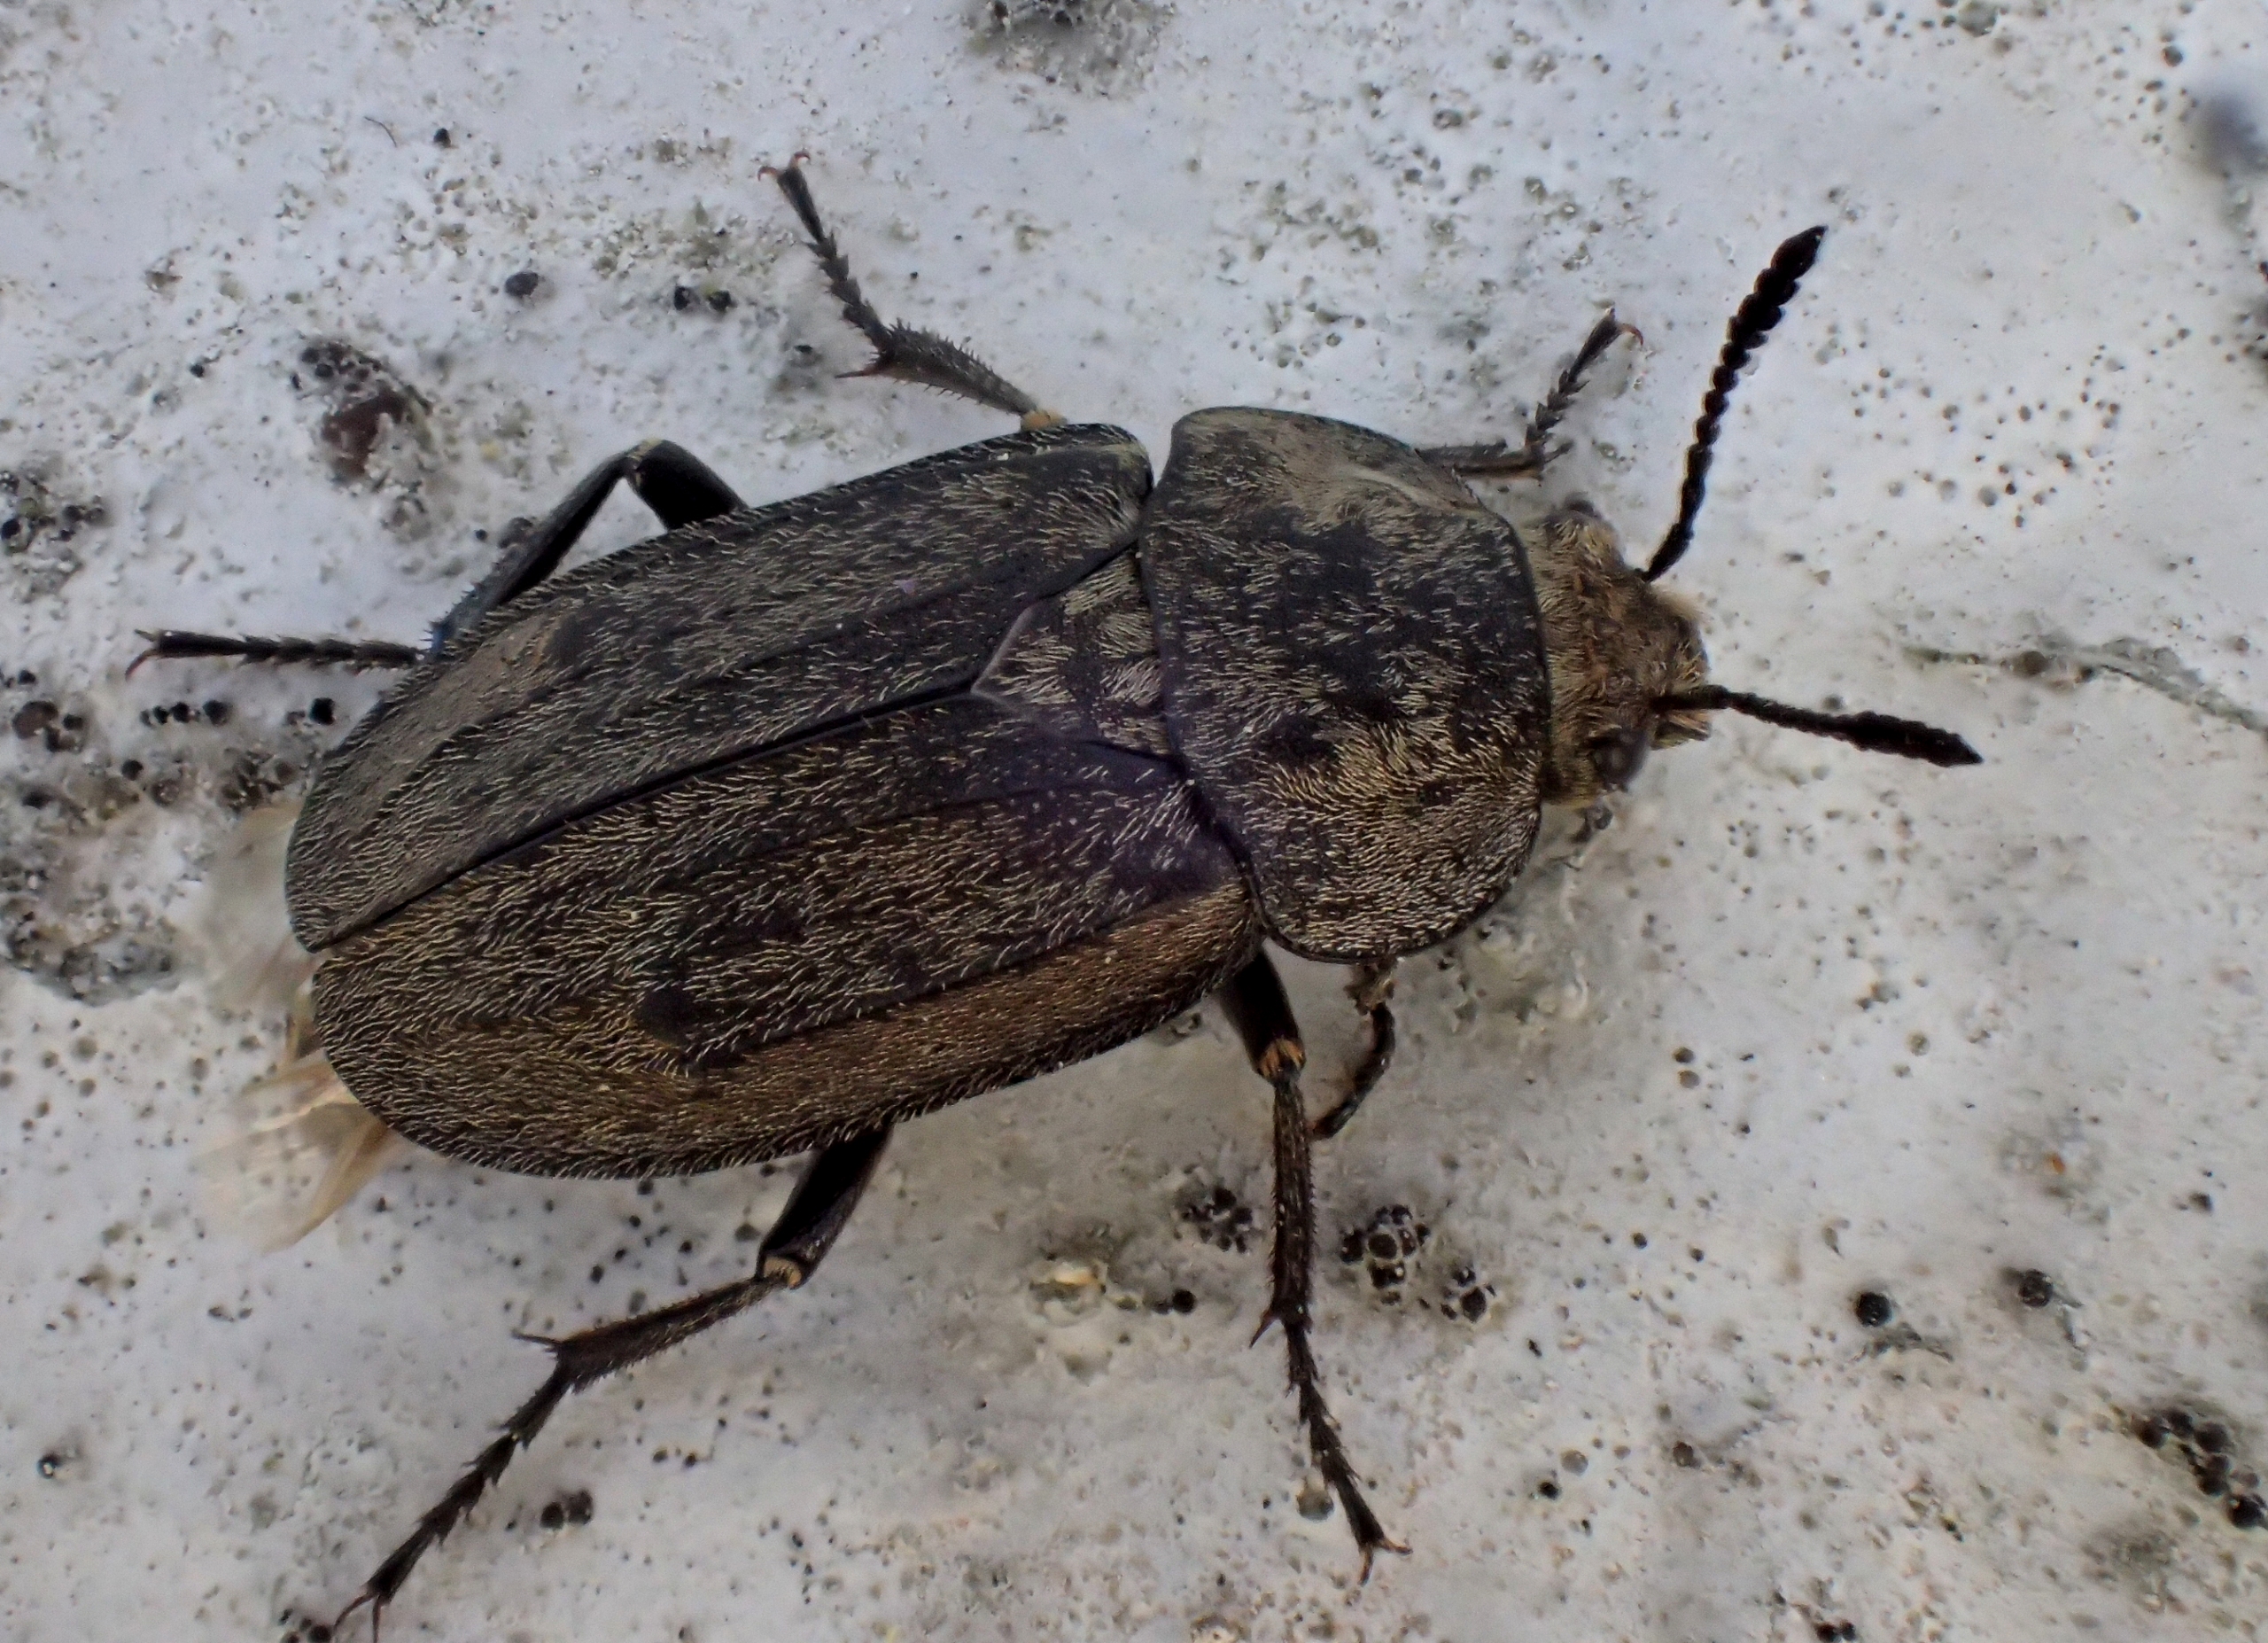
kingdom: Animalia
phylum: Arthropoda
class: Insecta
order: Coleoptera
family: Staphylinidae
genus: Aclypea
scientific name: Aclypea opaca
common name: Matsort ådselbille
